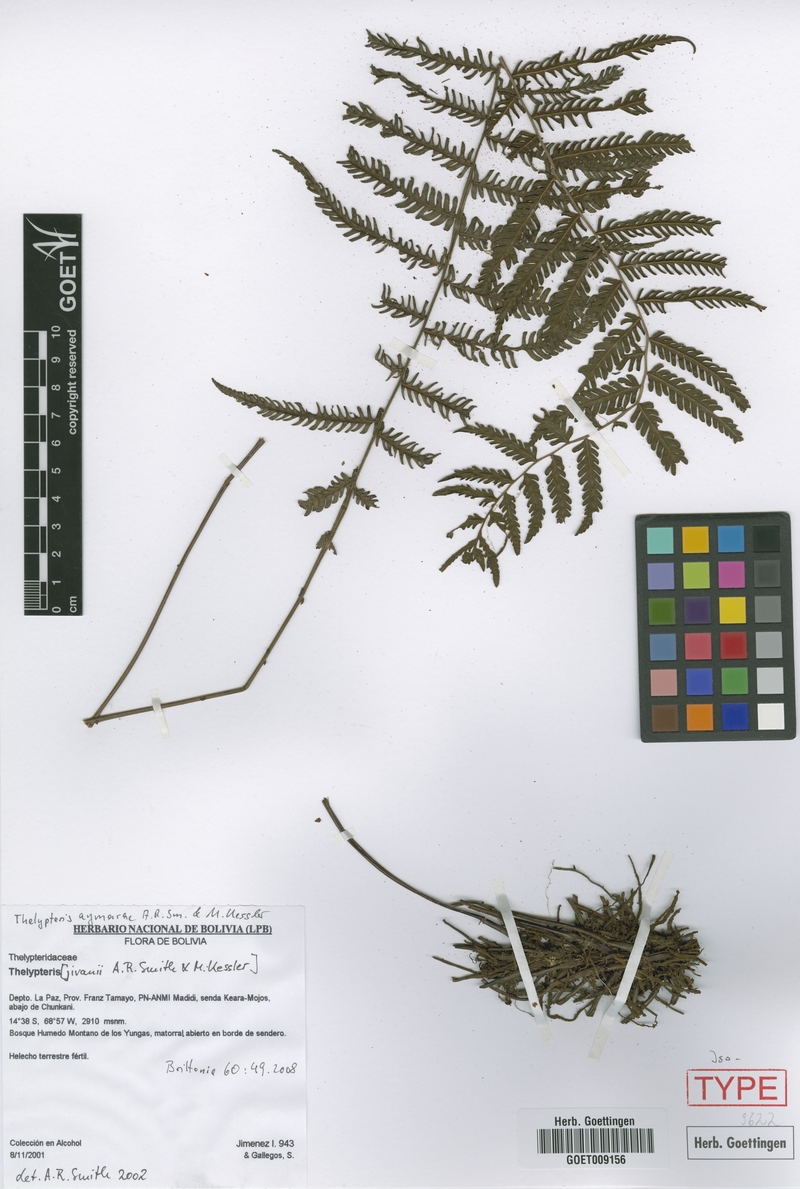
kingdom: Plantae
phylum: Tracheophyta
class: Polypodiopsida
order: Polypodiales
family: Thelypteridaceae
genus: Amauropelta
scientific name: Amauropelta aymarae
